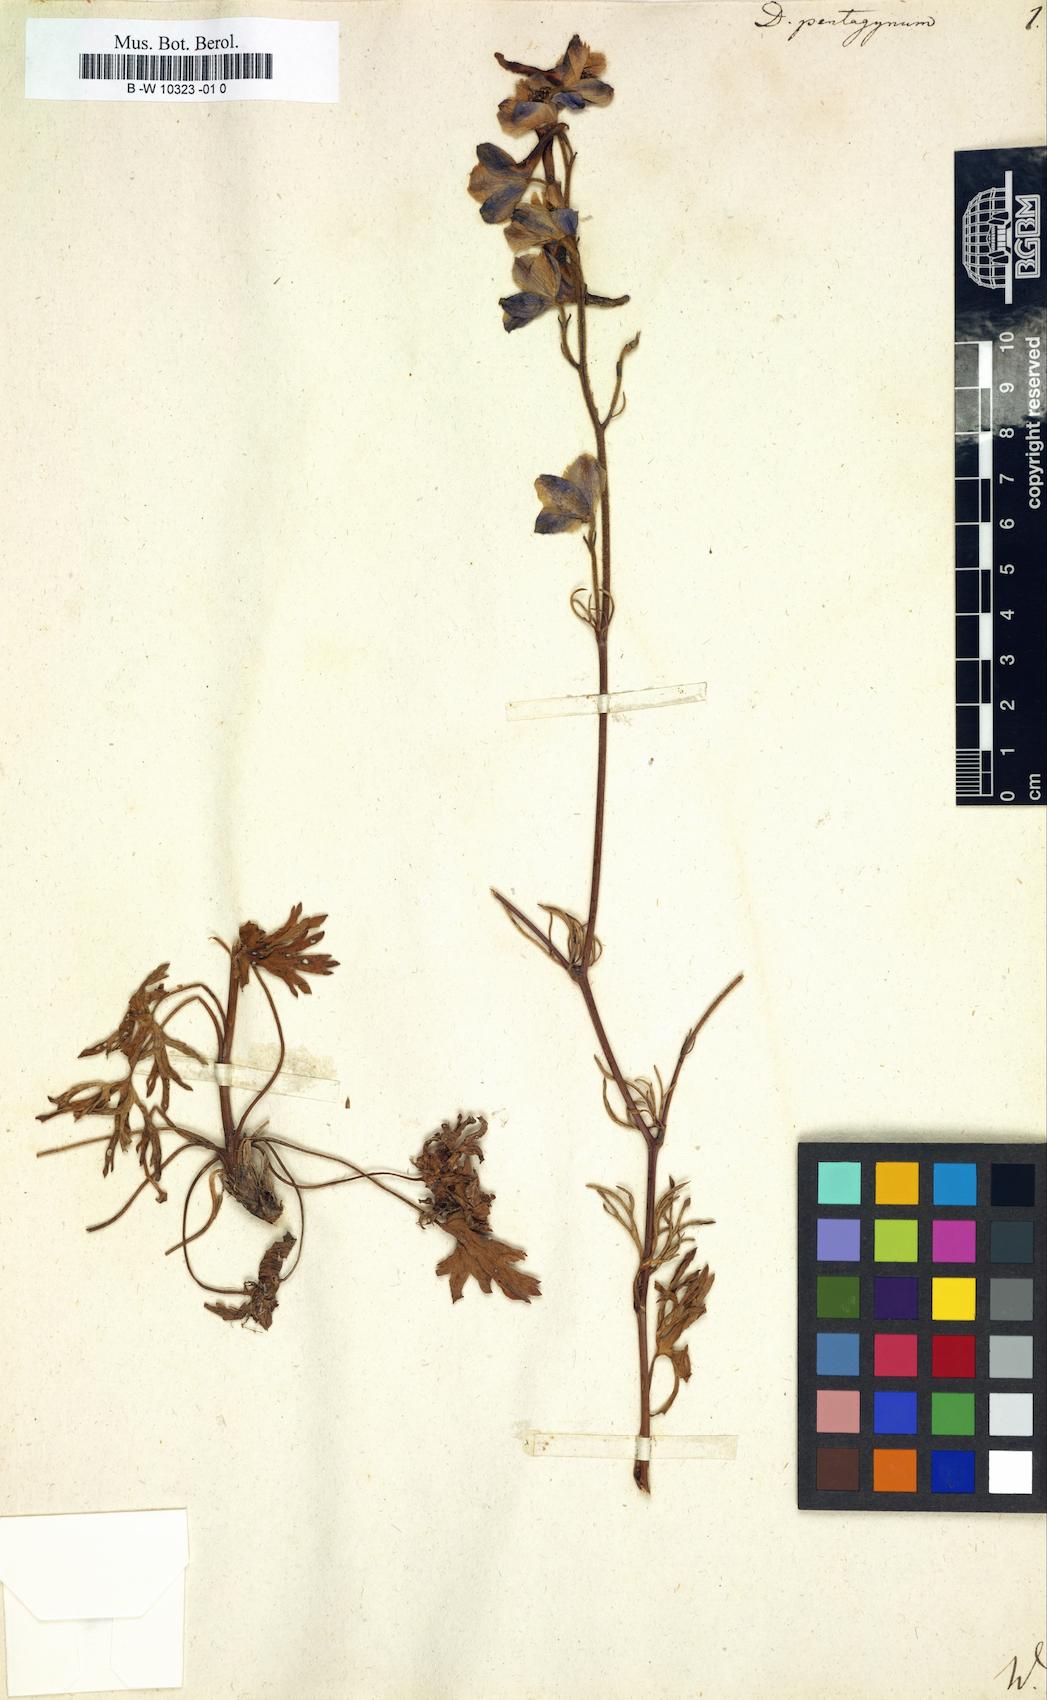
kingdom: Plantae
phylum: Tracheophyta
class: Magnoliopsida
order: Ranunculales
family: Ranunculaceae
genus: Delphinium
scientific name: Delphinium pentagynum
